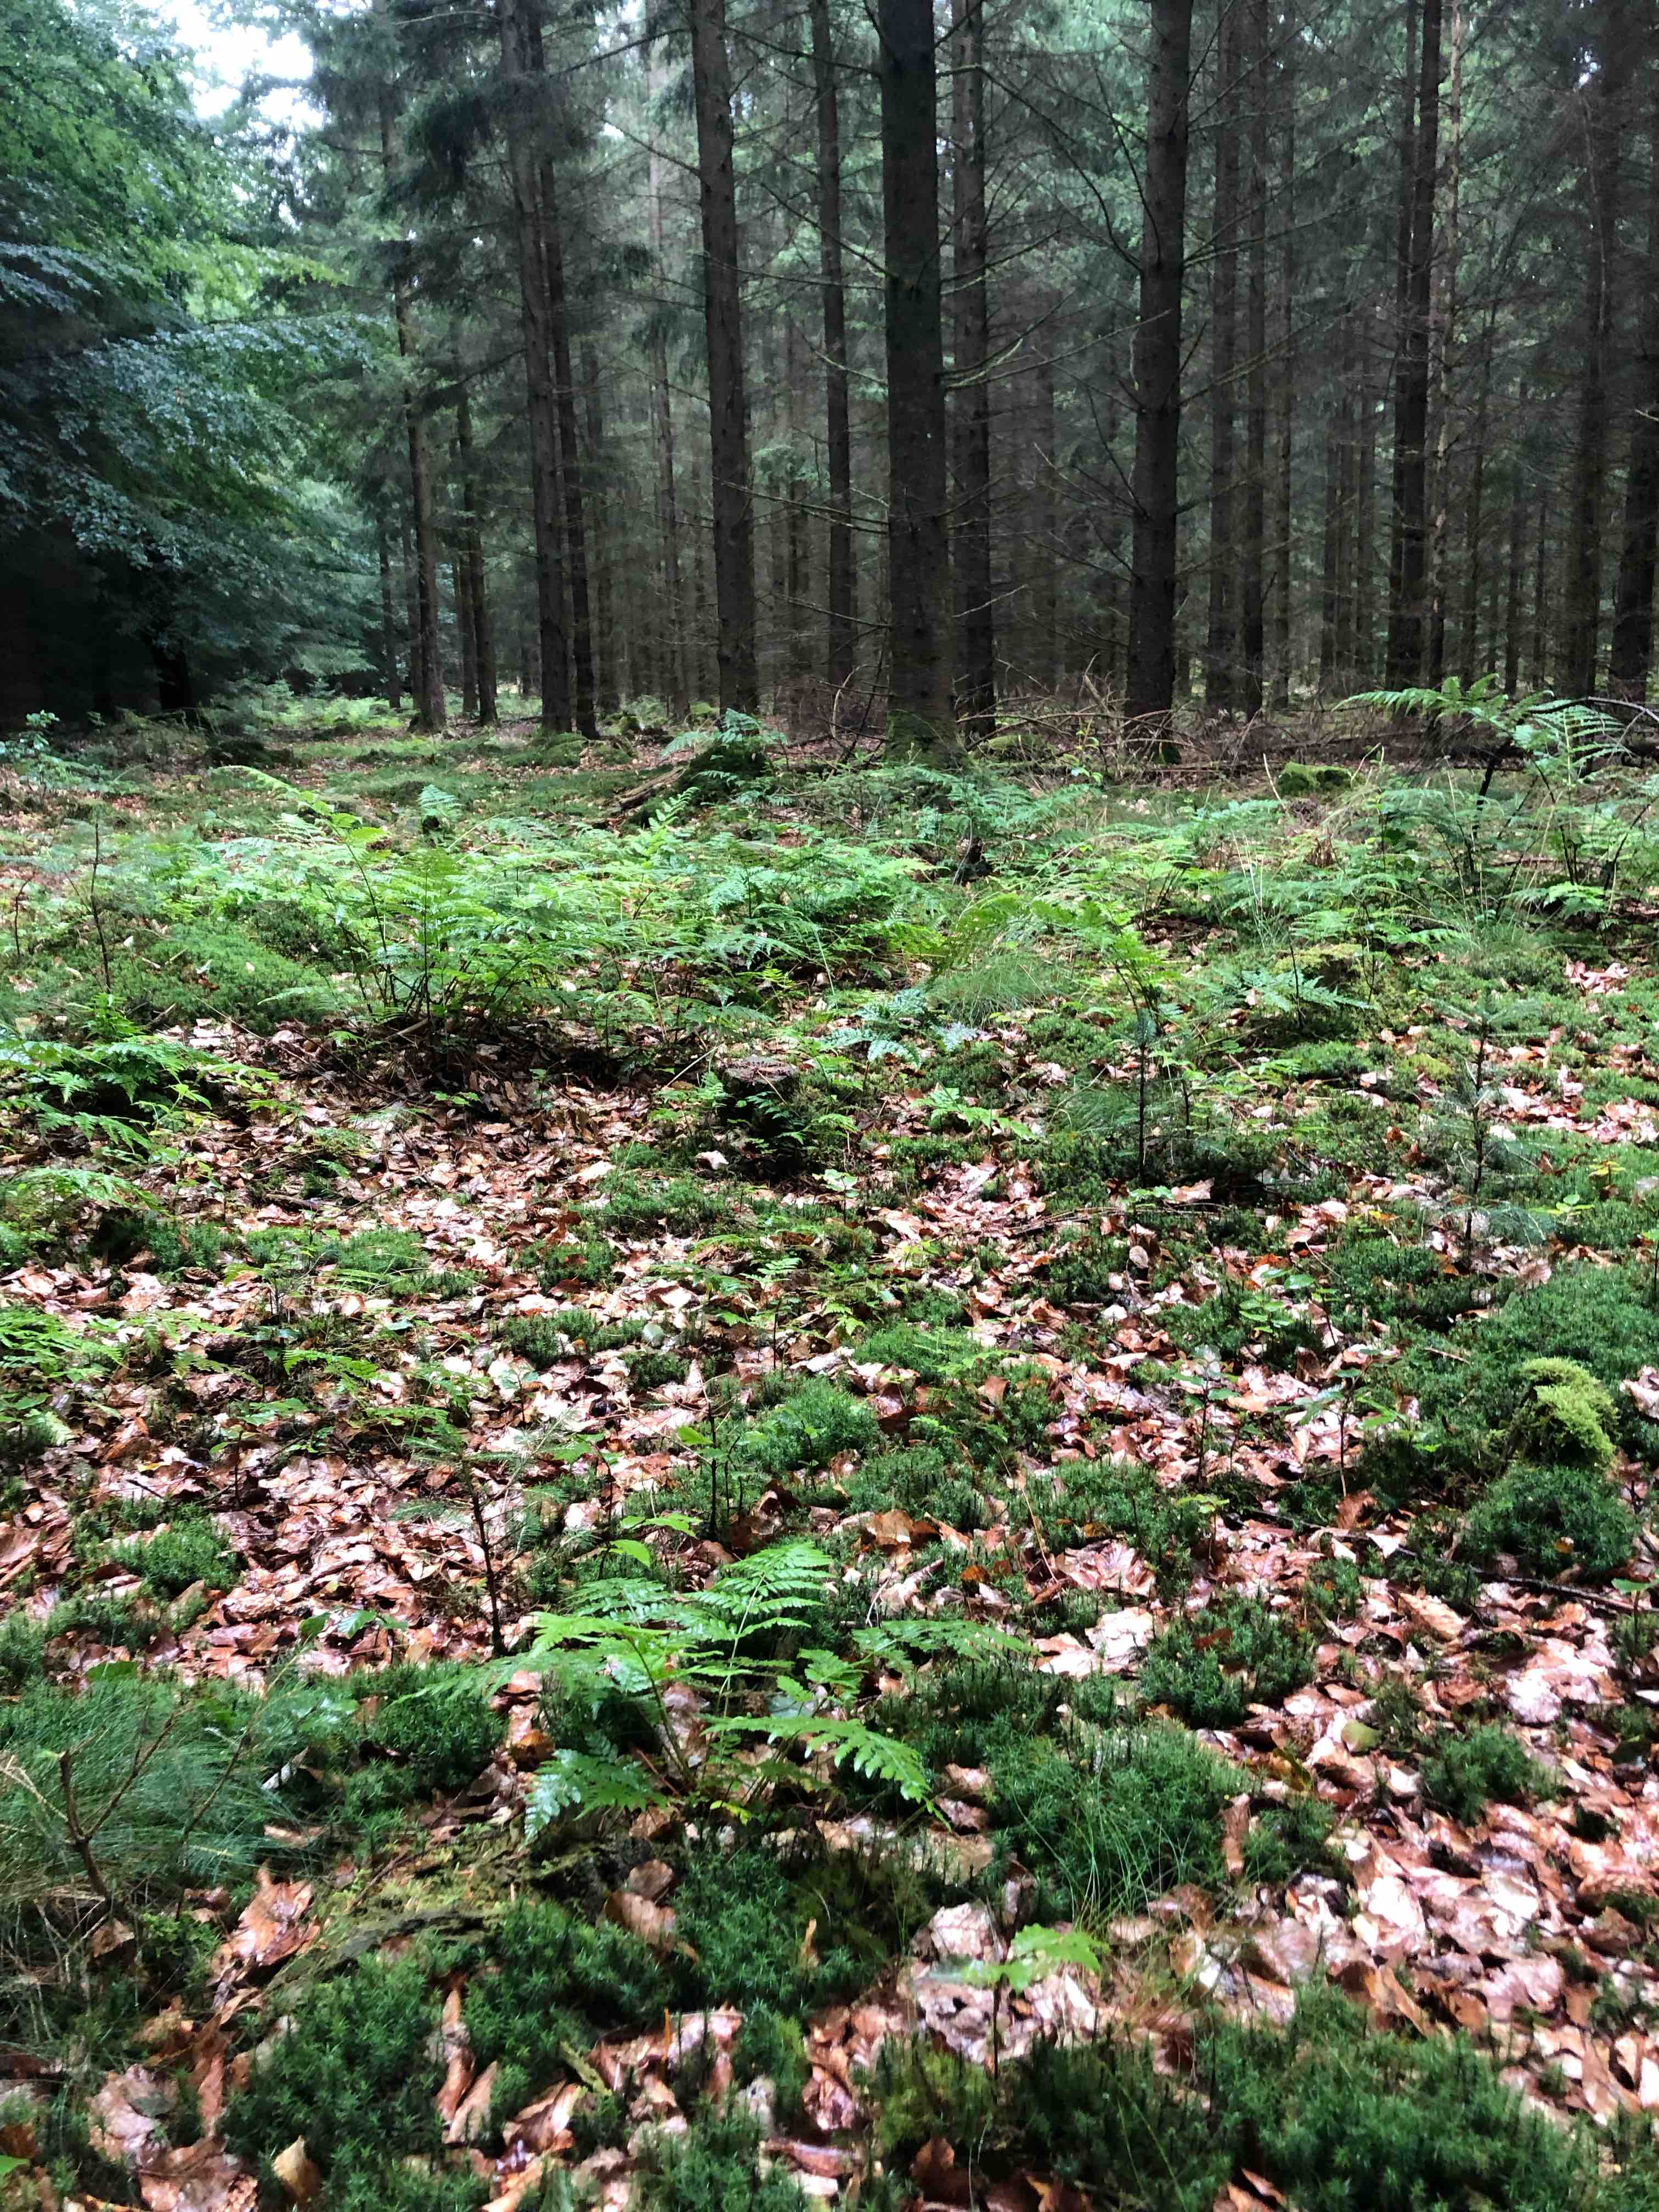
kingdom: Fungi
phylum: Basidiomycota
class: Agaricomycetes
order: Agaricales
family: Mycenaceae
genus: Mycena
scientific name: Mycena purpureofusca
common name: purpur-huesvamp
